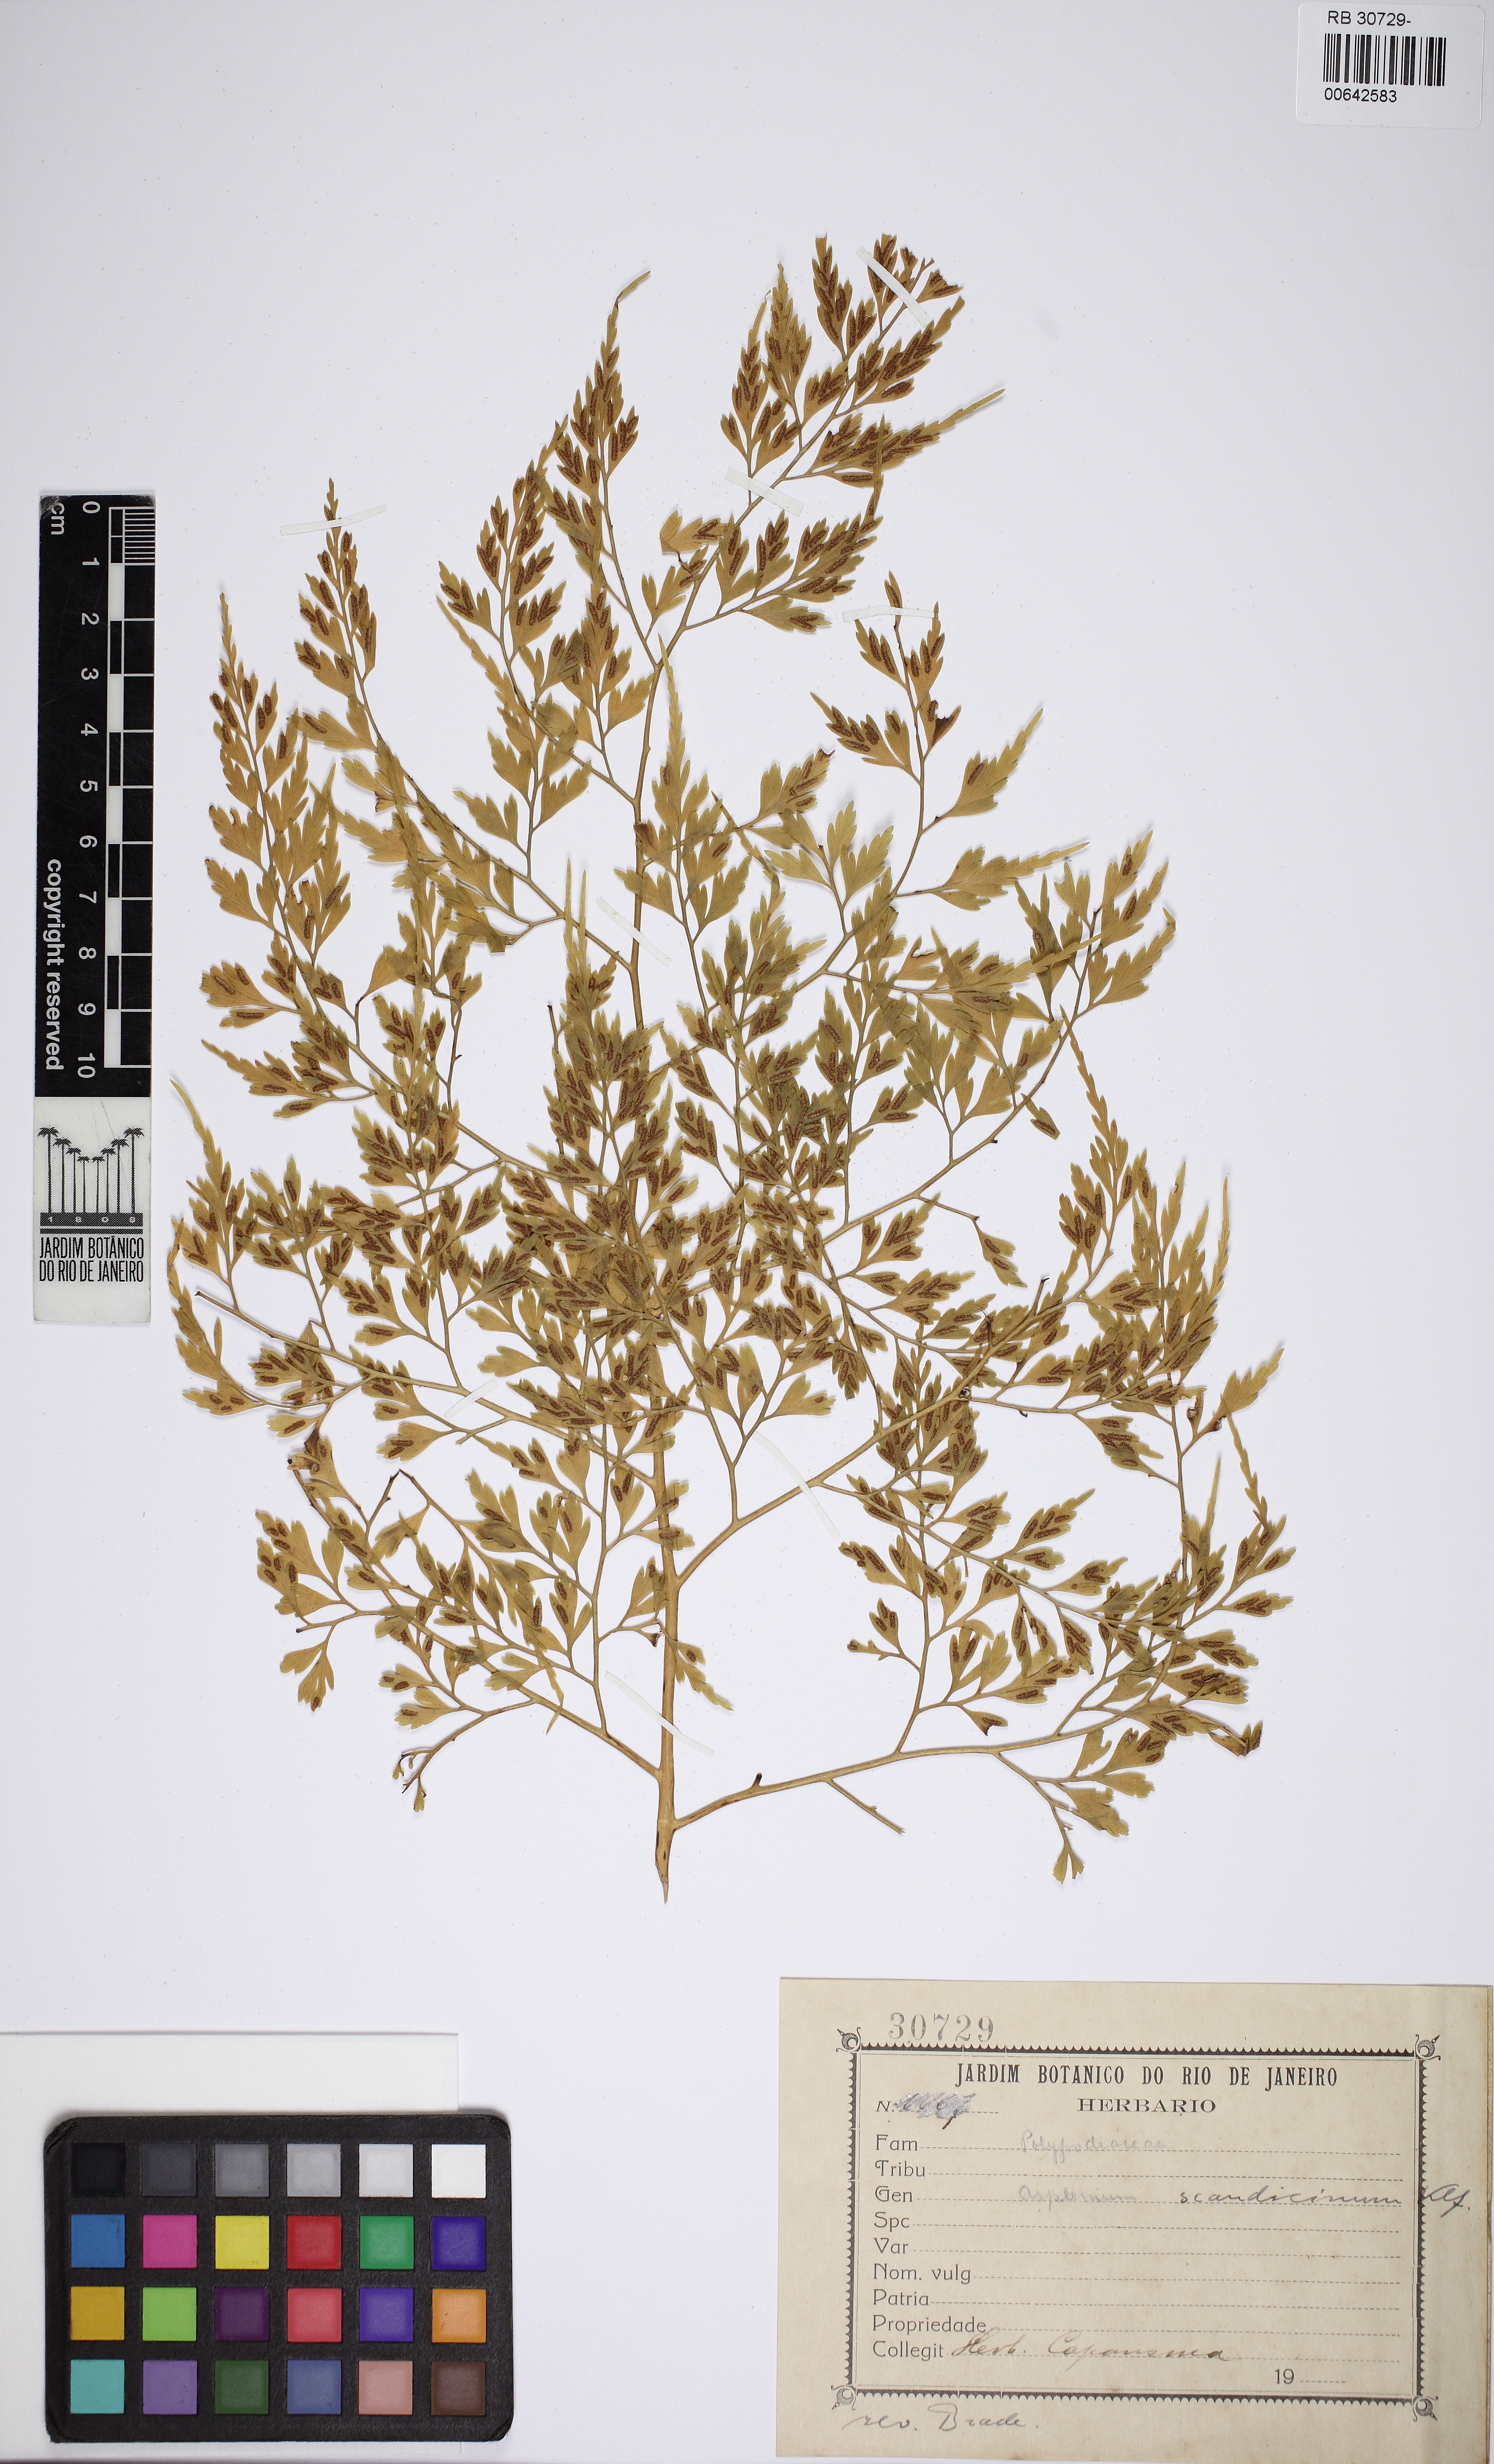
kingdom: Plantae
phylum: Tracheophyta
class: Polypodiopsida
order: Polypodiales
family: Aspleniaceae
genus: Asplenium
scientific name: Asplenium scandicinum
